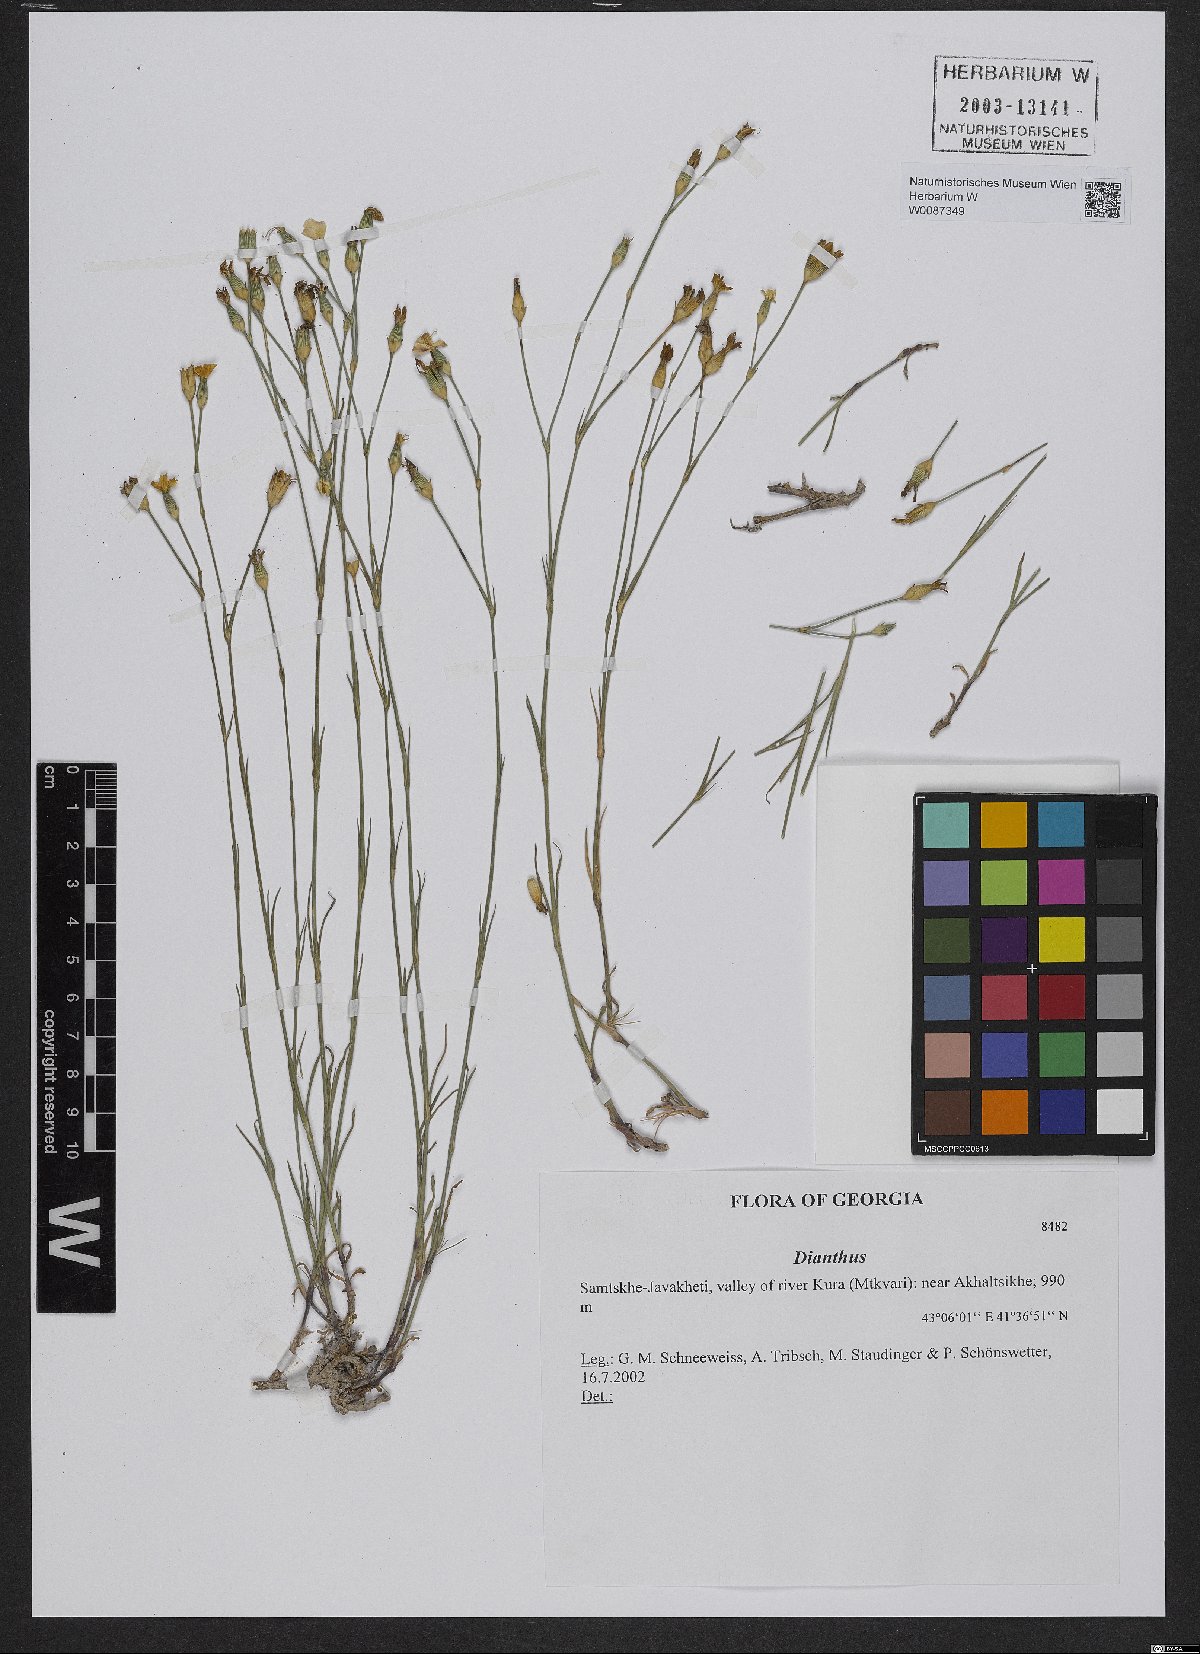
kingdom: Plantae
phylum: Tracheophyta
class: Magnoliopsida
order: Caryophyllales
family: Caryophyllaceae
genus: Dianthus
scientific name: Dianthus
